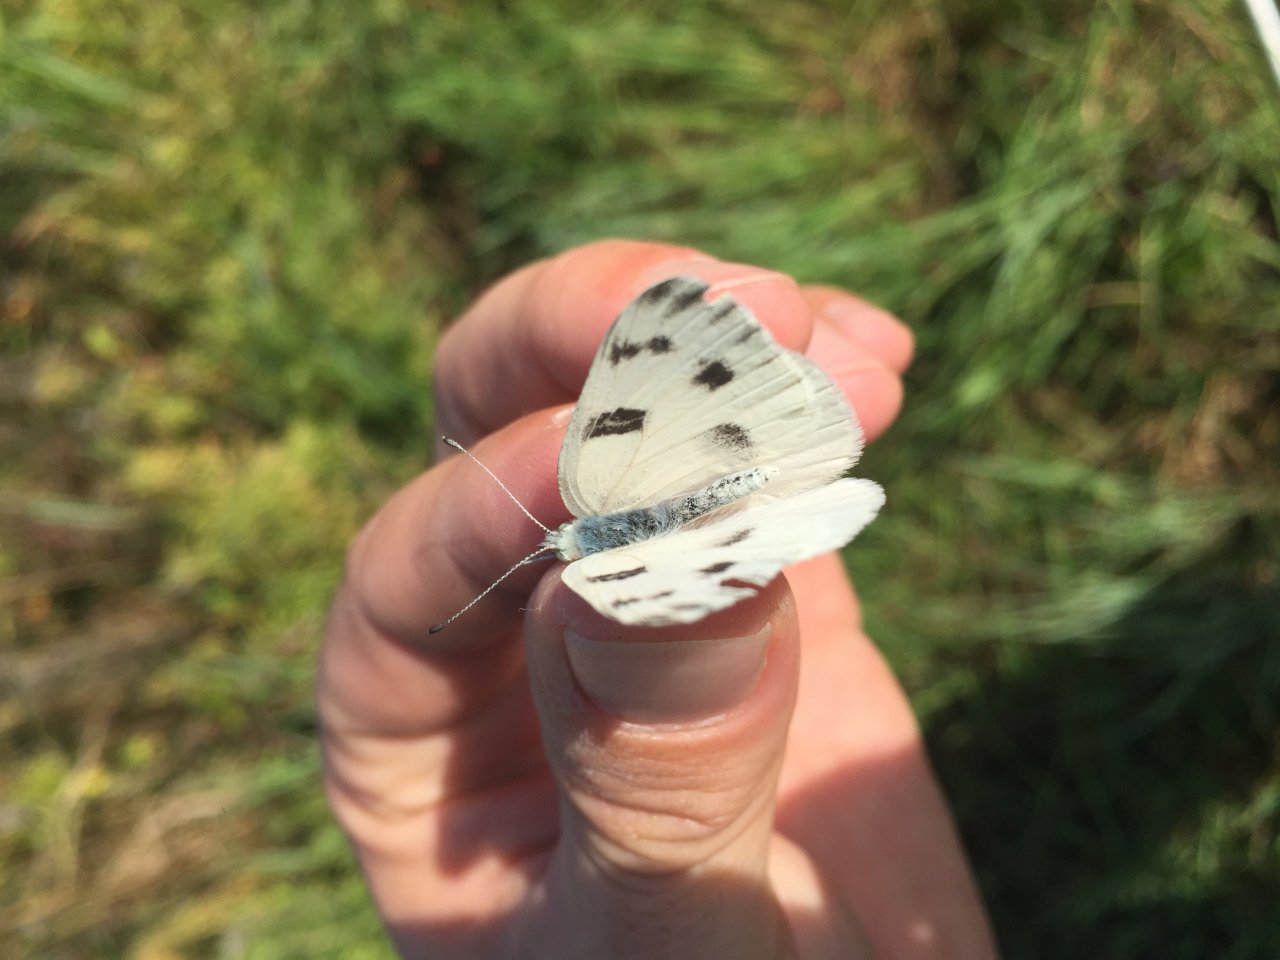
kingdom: Animalia
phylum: Arthropoda
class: Insecta
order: Lepidoptera
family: Pieridae
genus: Pontia
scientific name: Pontia protodice
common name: Checkered White
